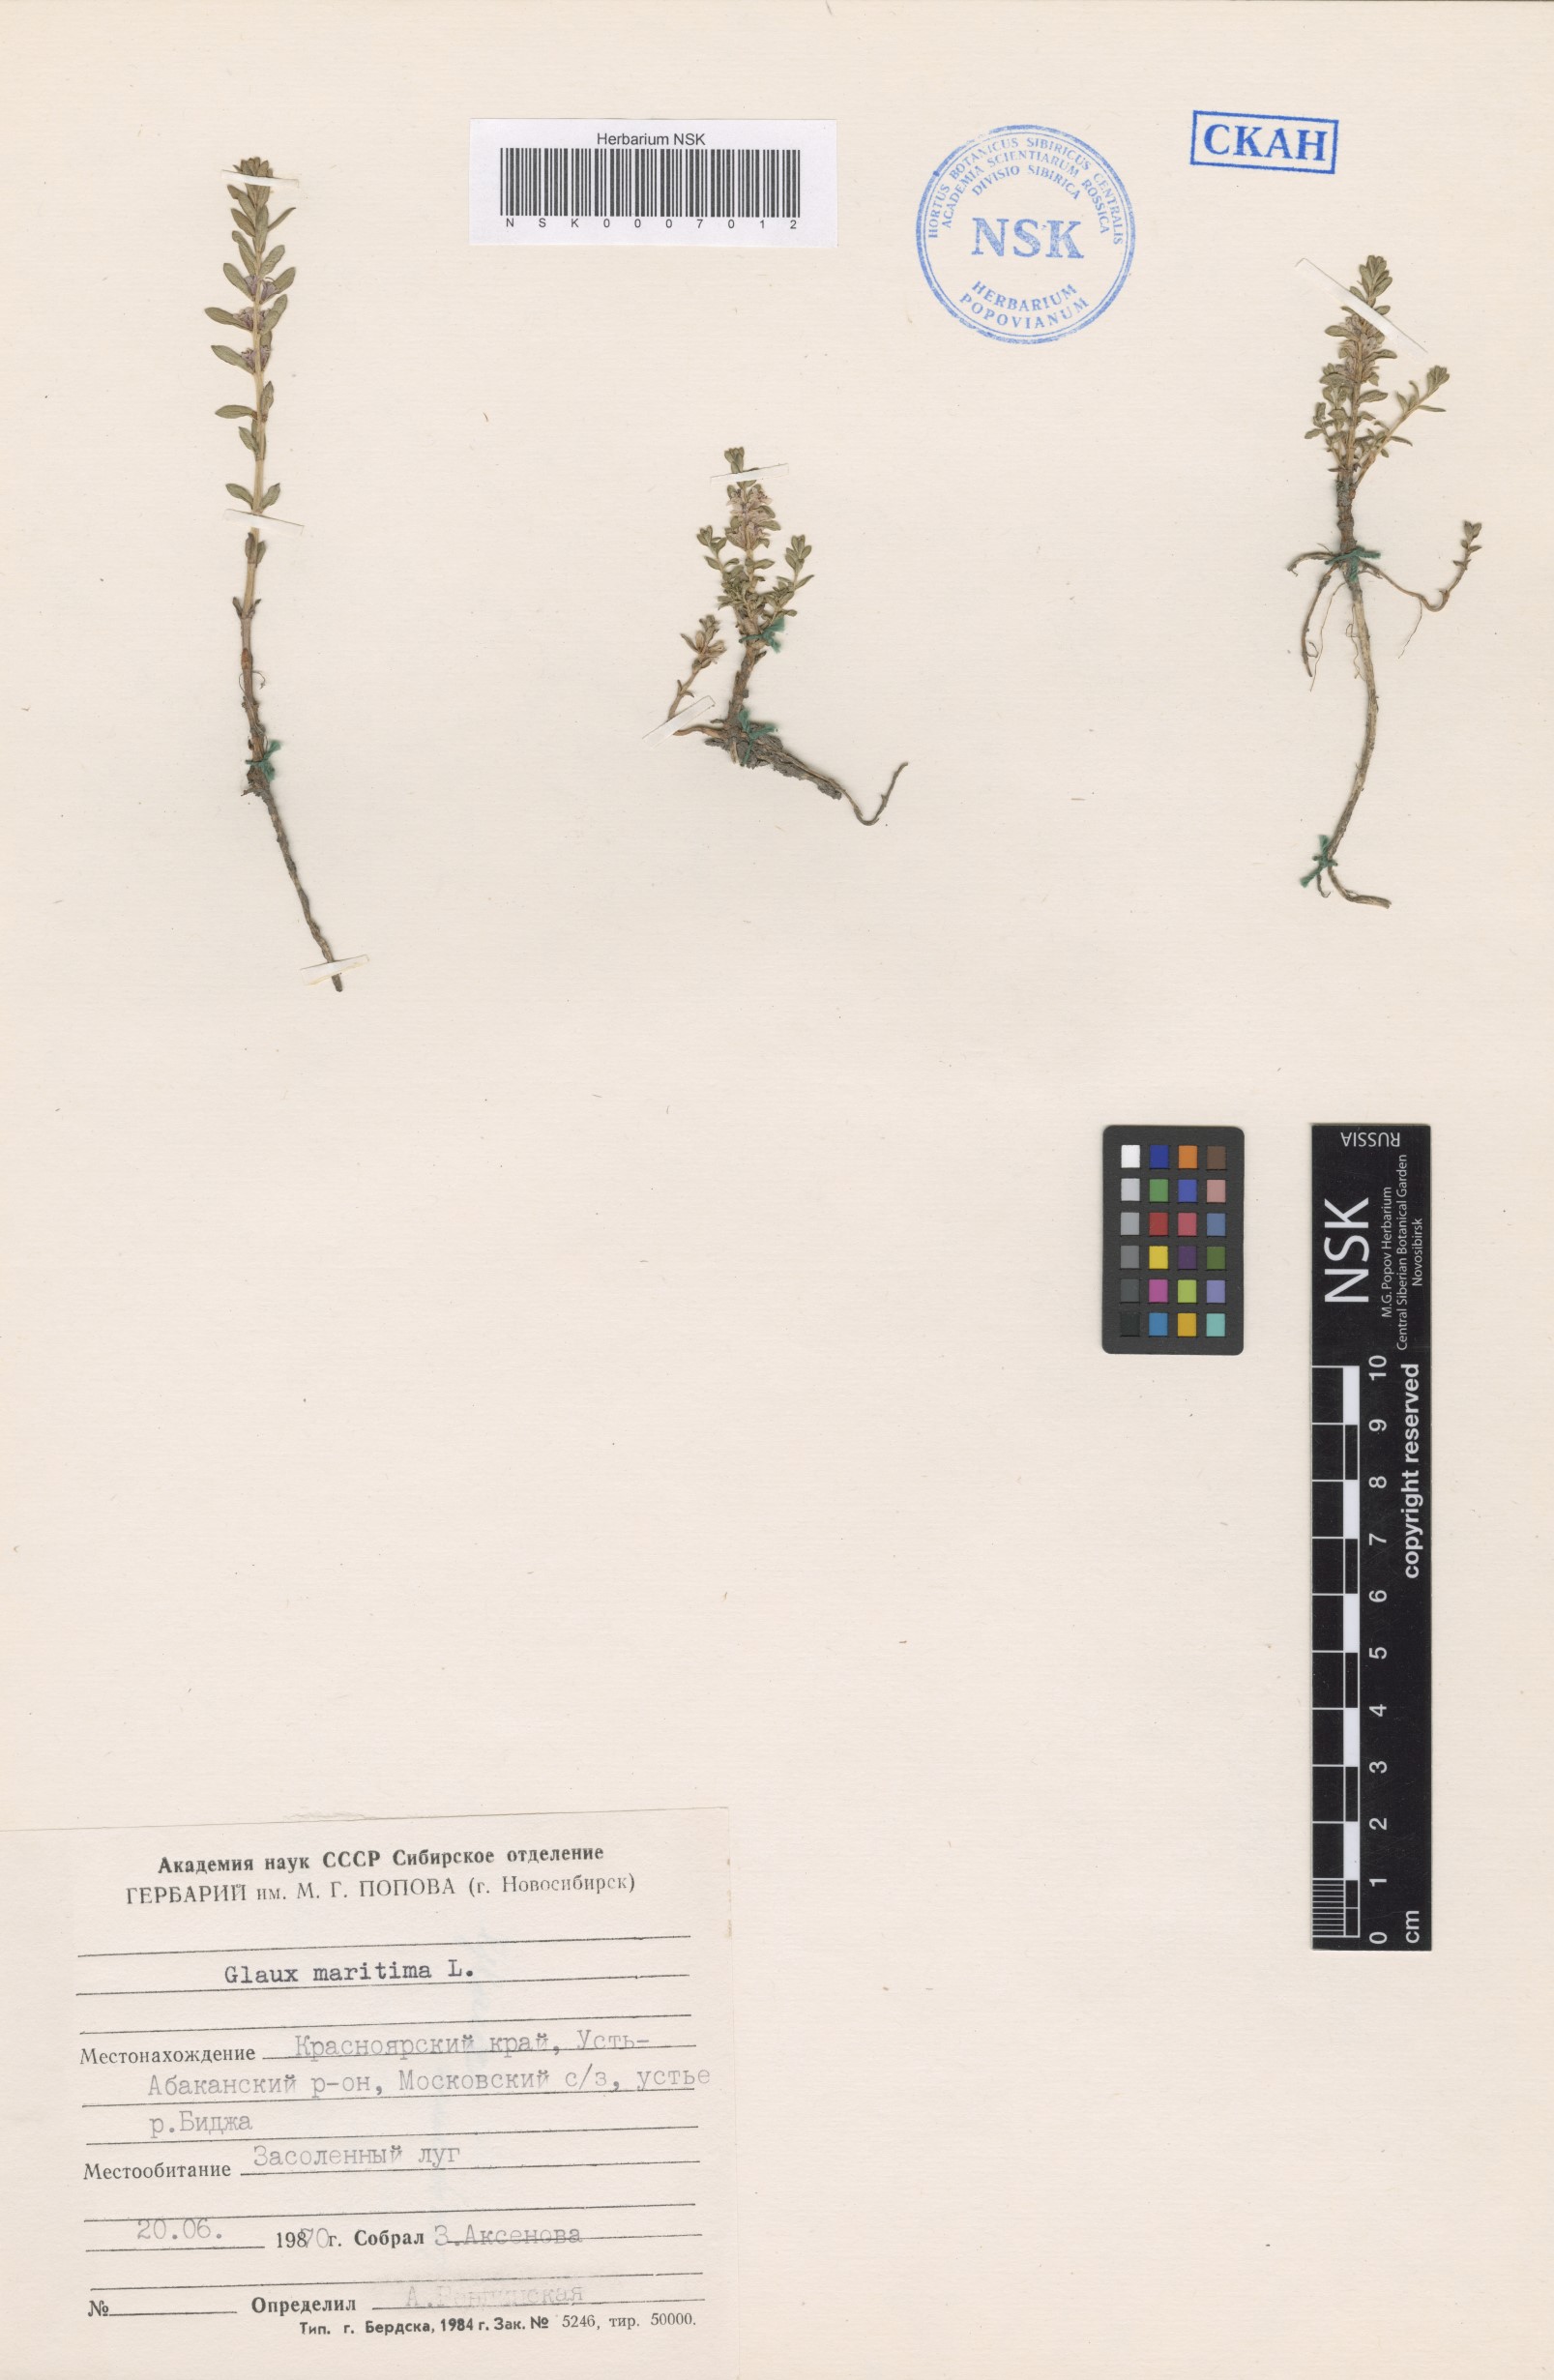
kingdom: Plantae
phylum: Tracheophyta
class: Magnoliopsida
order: Ericales
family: Primulaceae
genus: Lysimachia
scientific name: Lysimachia maritima
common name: Sea milkwort
